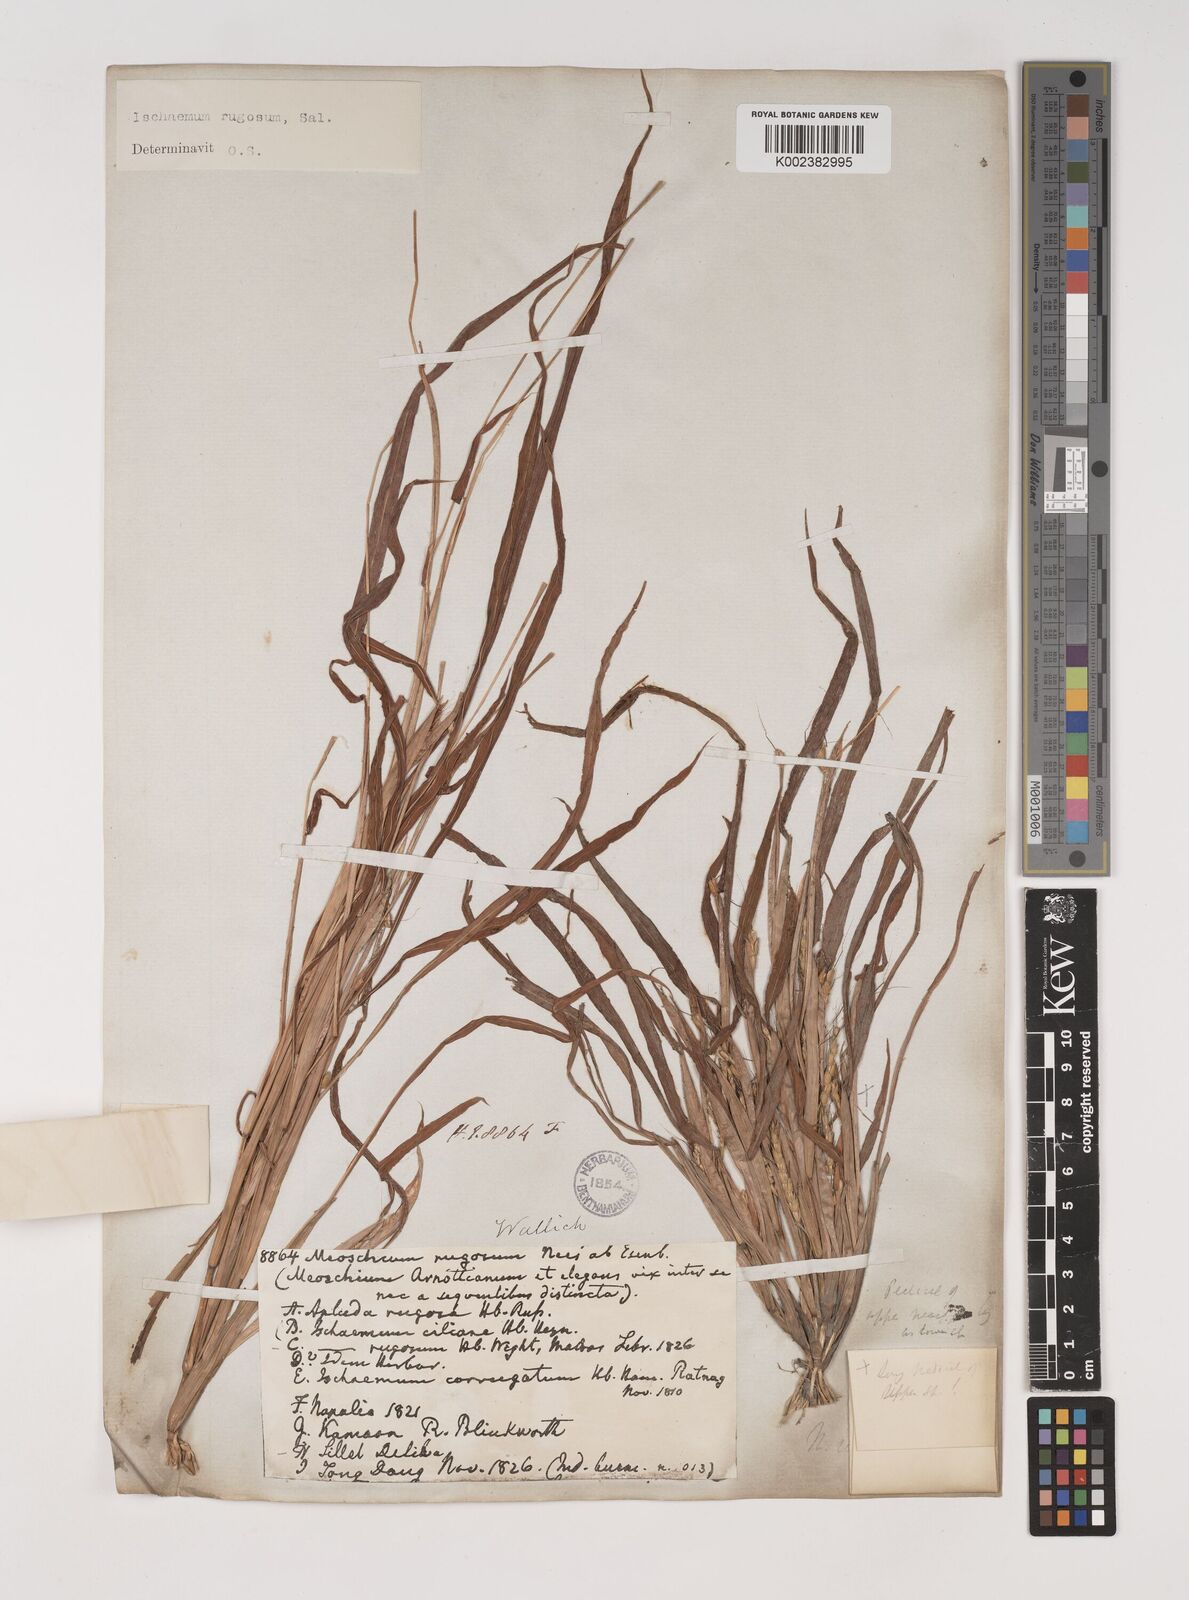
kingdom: Plantae
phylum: Tracheophyta
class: Liliopsida
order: Poales
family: Poaceae
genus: Ischaemum
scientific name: Ischaemum rugosum
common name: Saramatta grass
